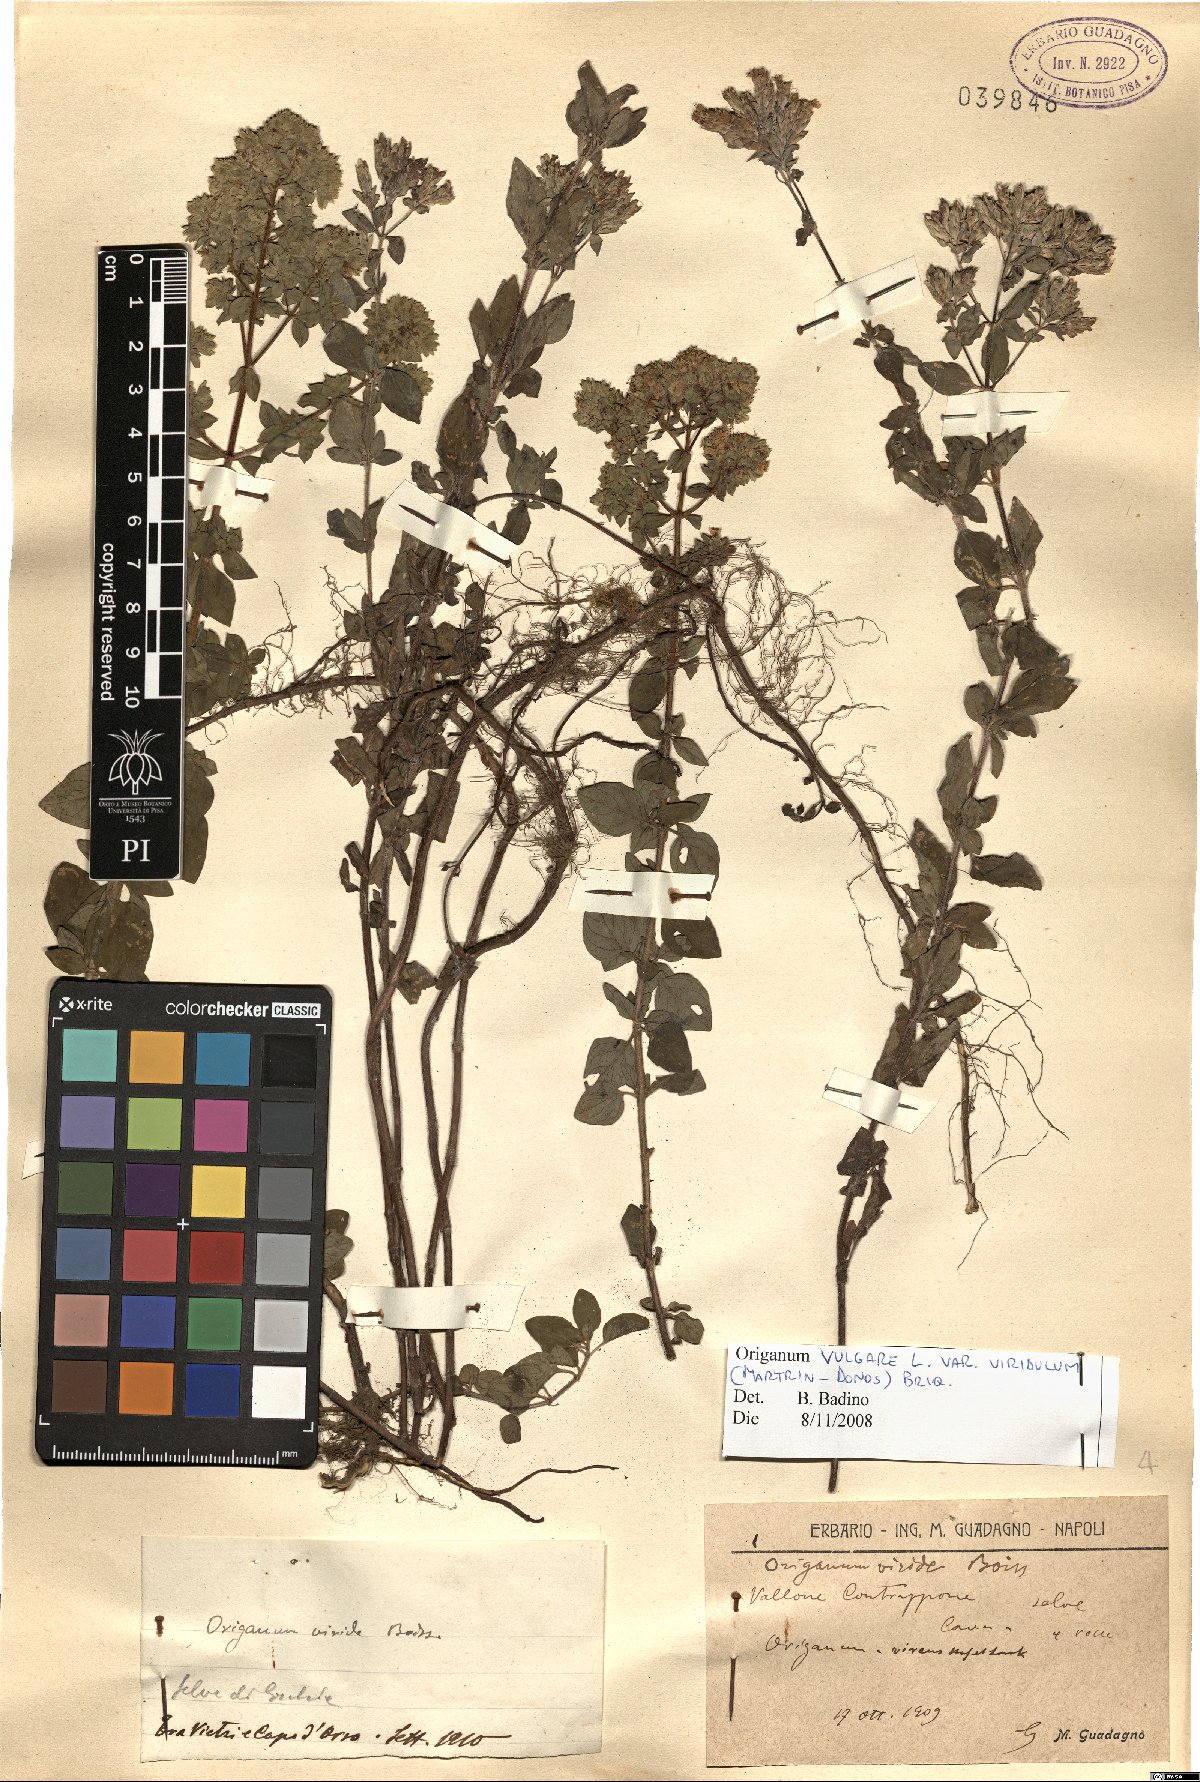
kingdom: Plantae
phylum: Tracheophyta
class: Magnoliopsida
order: Lamiales
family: Lamiaceae
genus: Origanum
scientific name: Origanum vulgare
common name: Wild marjoram
